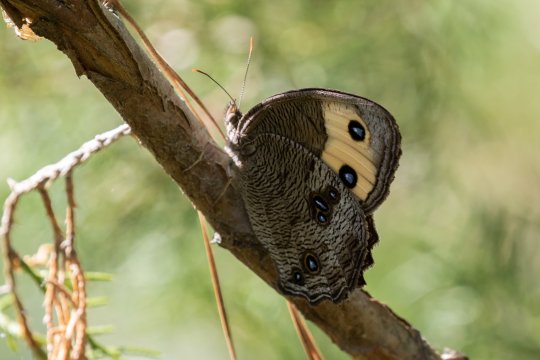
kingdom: Animalia
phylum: Arthropoda
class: Insecta
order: Lepidoptera
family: Nymphalidae
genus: Cercyonis
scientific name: Cercyonis pegala
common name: Common Wood-Nymph
